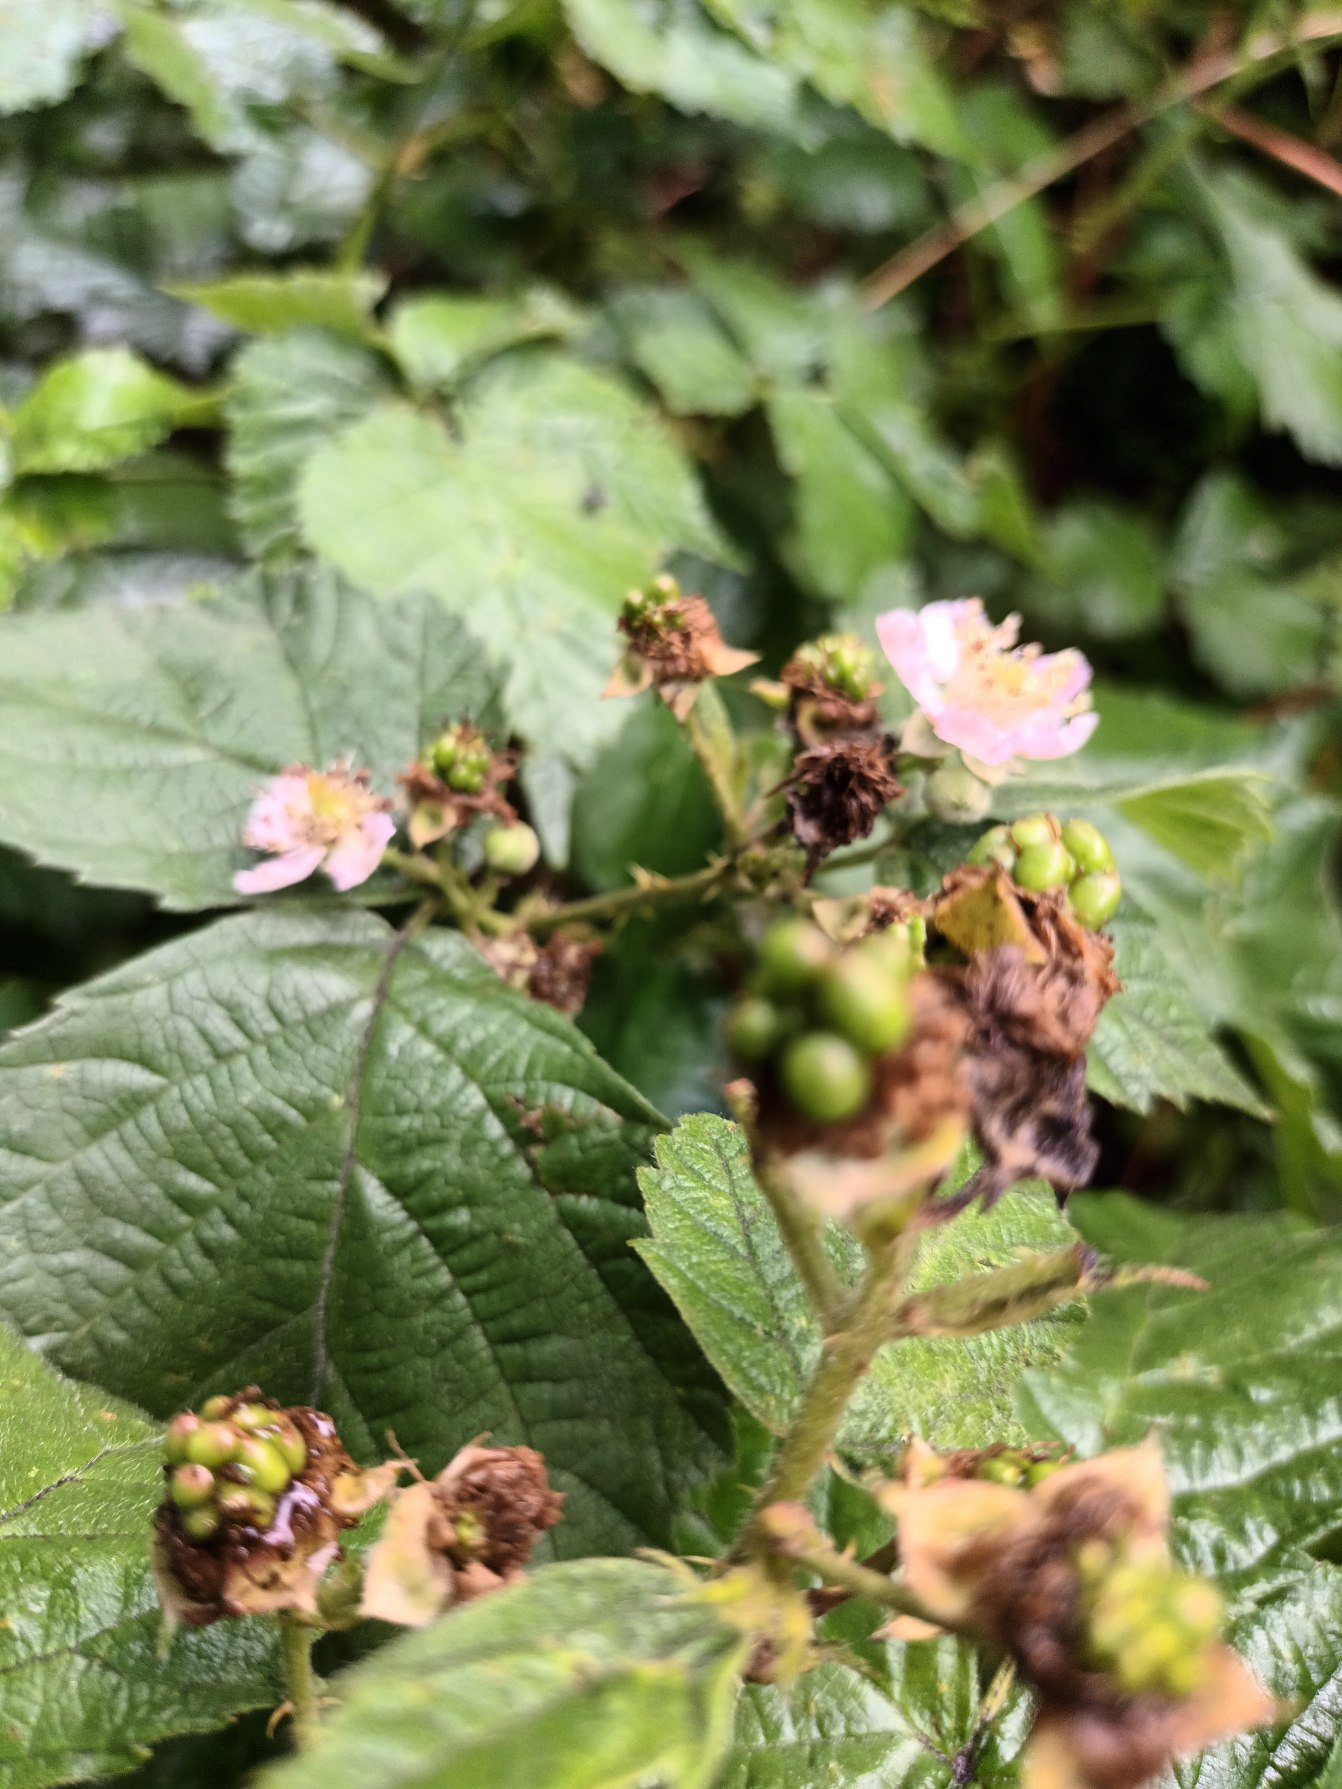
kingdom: Plantae
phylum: Tracheophyta
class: Magnoliopsida
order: Rosales
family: Rosaceae
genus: Rubus
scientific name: Rubus wahlbergii
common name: Wahlbergs hasselbrombær
